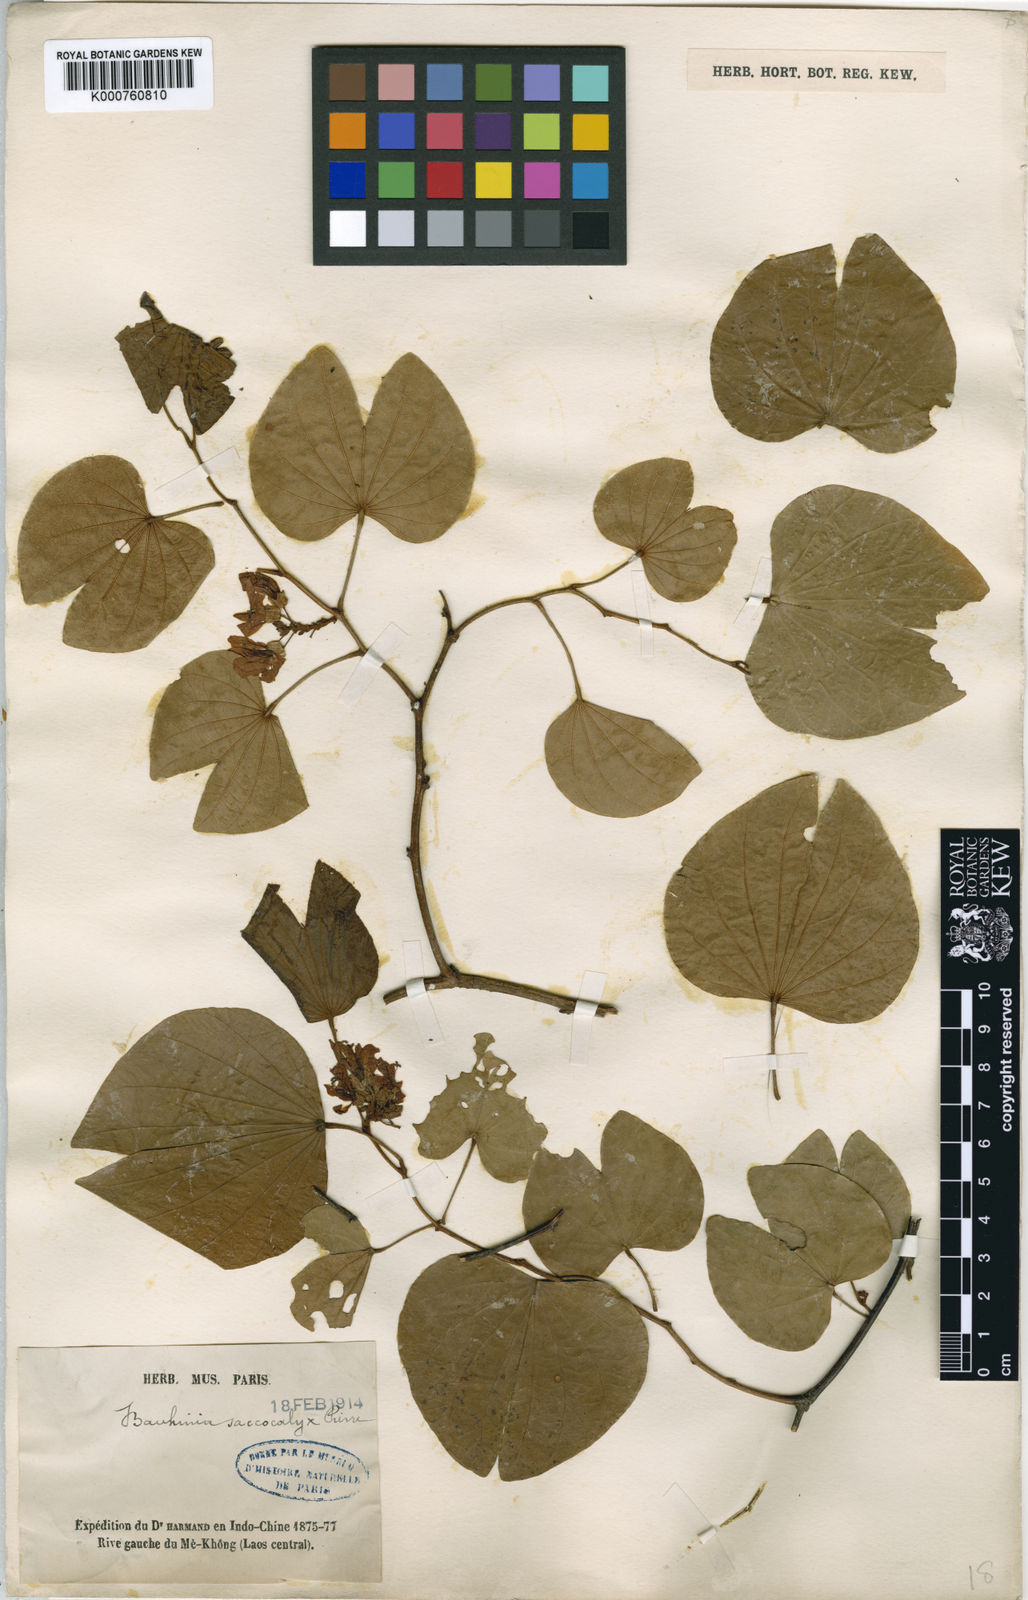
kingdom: Plantae
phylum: Tracheophyta
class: Magnoliopsida
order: Fabales
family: Fabaceae
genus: Bauhinia
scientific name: Bauhinia saccocalyx
